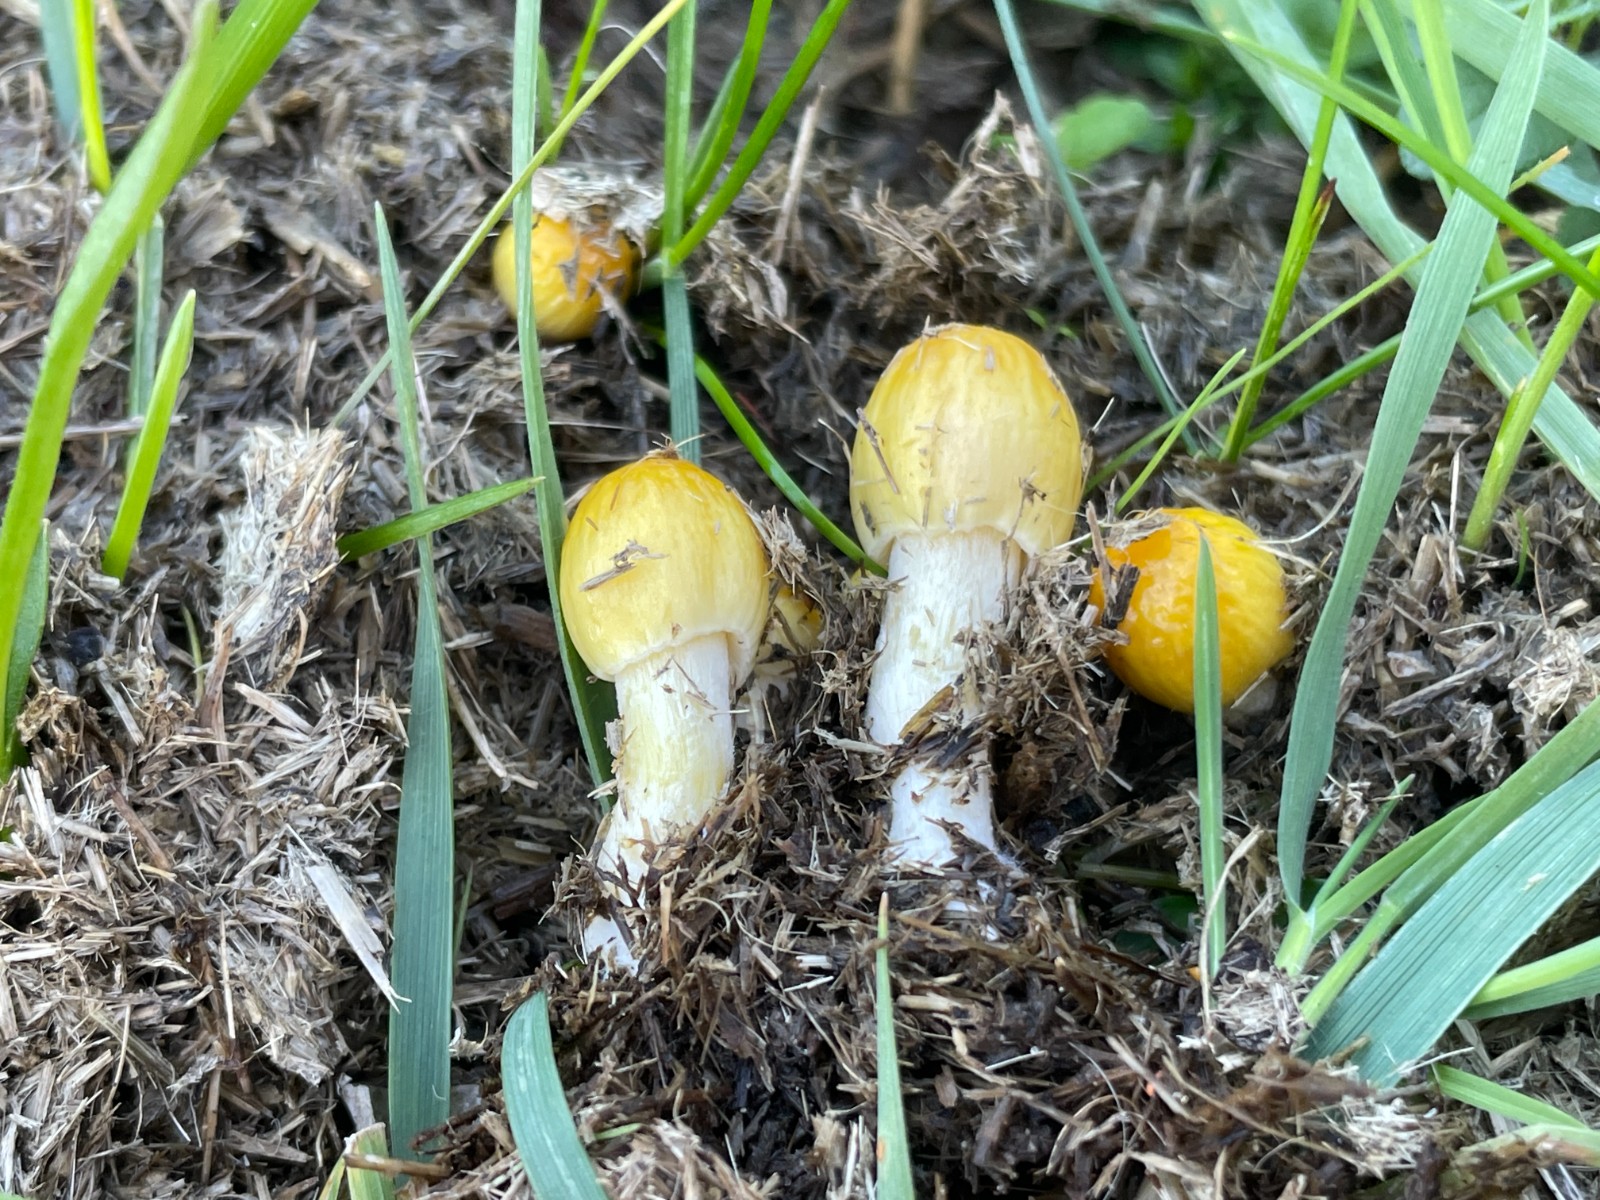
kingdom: Fungi
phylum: Basidiomycota
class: Agaricomycetes
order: Agaricales
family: Bolbitiaceae
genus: Bolbitius
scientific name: Bolbitius titubans
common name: almindelig gulhat
